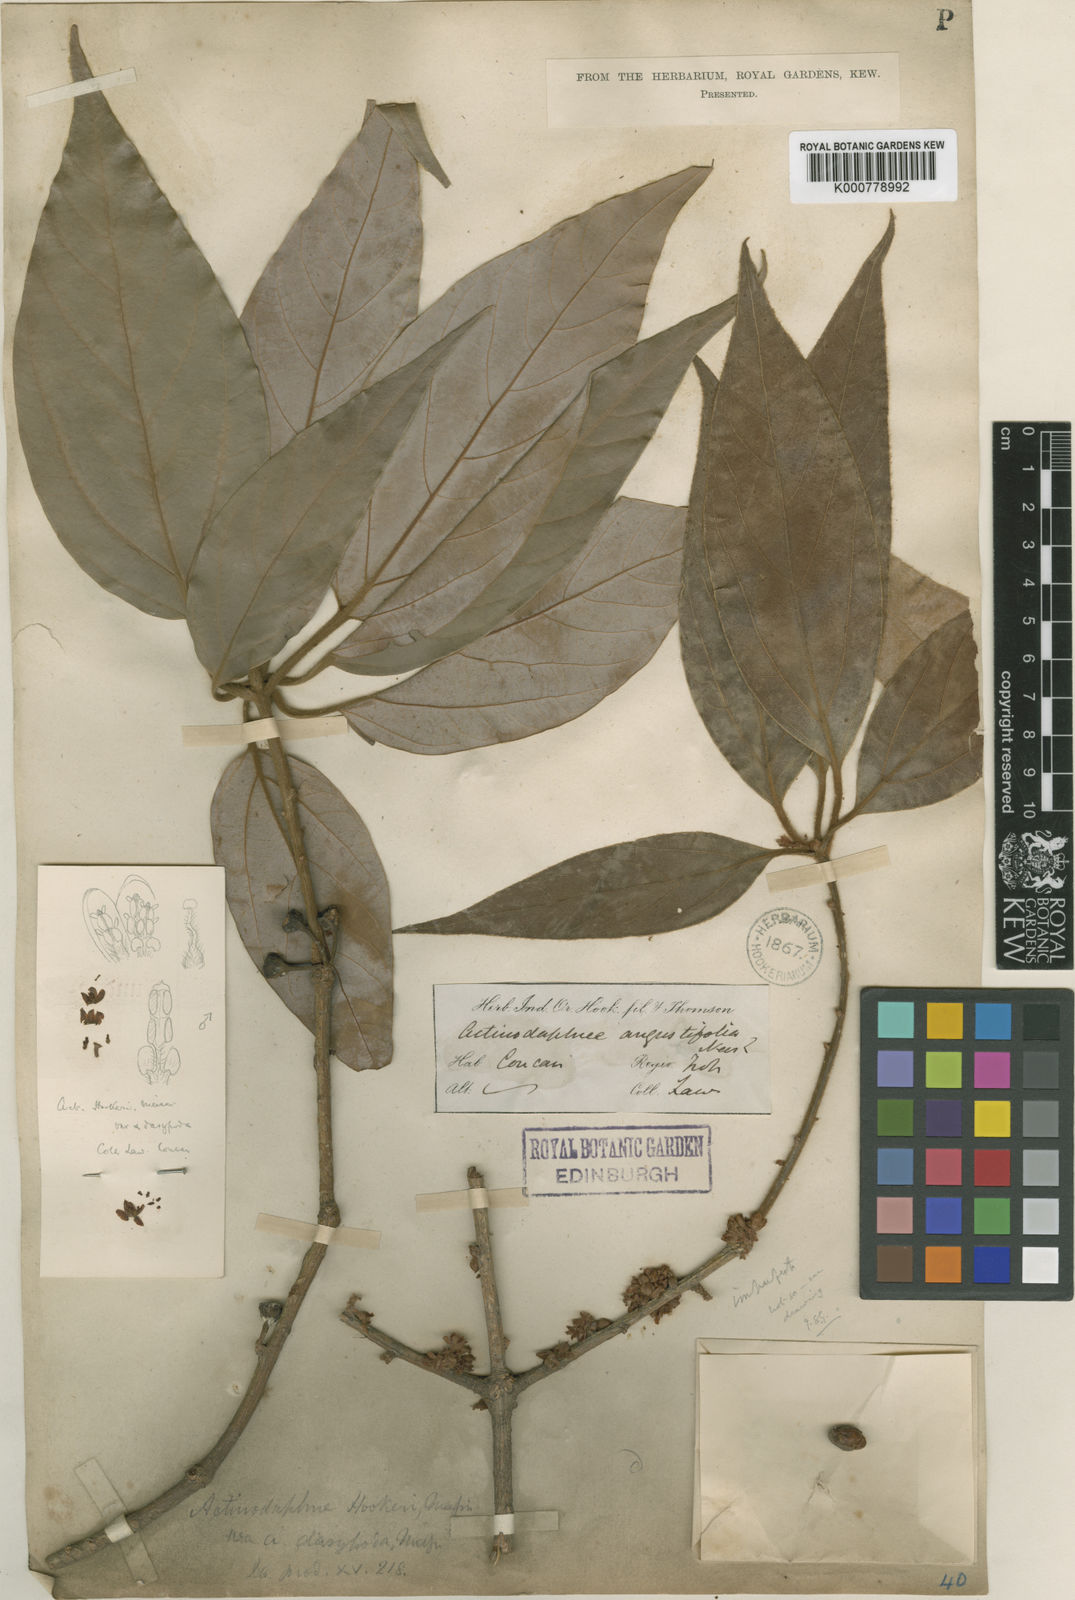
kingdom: Plantae
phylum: Tracheophyta
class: Magnoliopsida
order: Laurales
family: Lauraceae
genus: Actinodaphne
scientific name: Actinodaphne lanceolata
